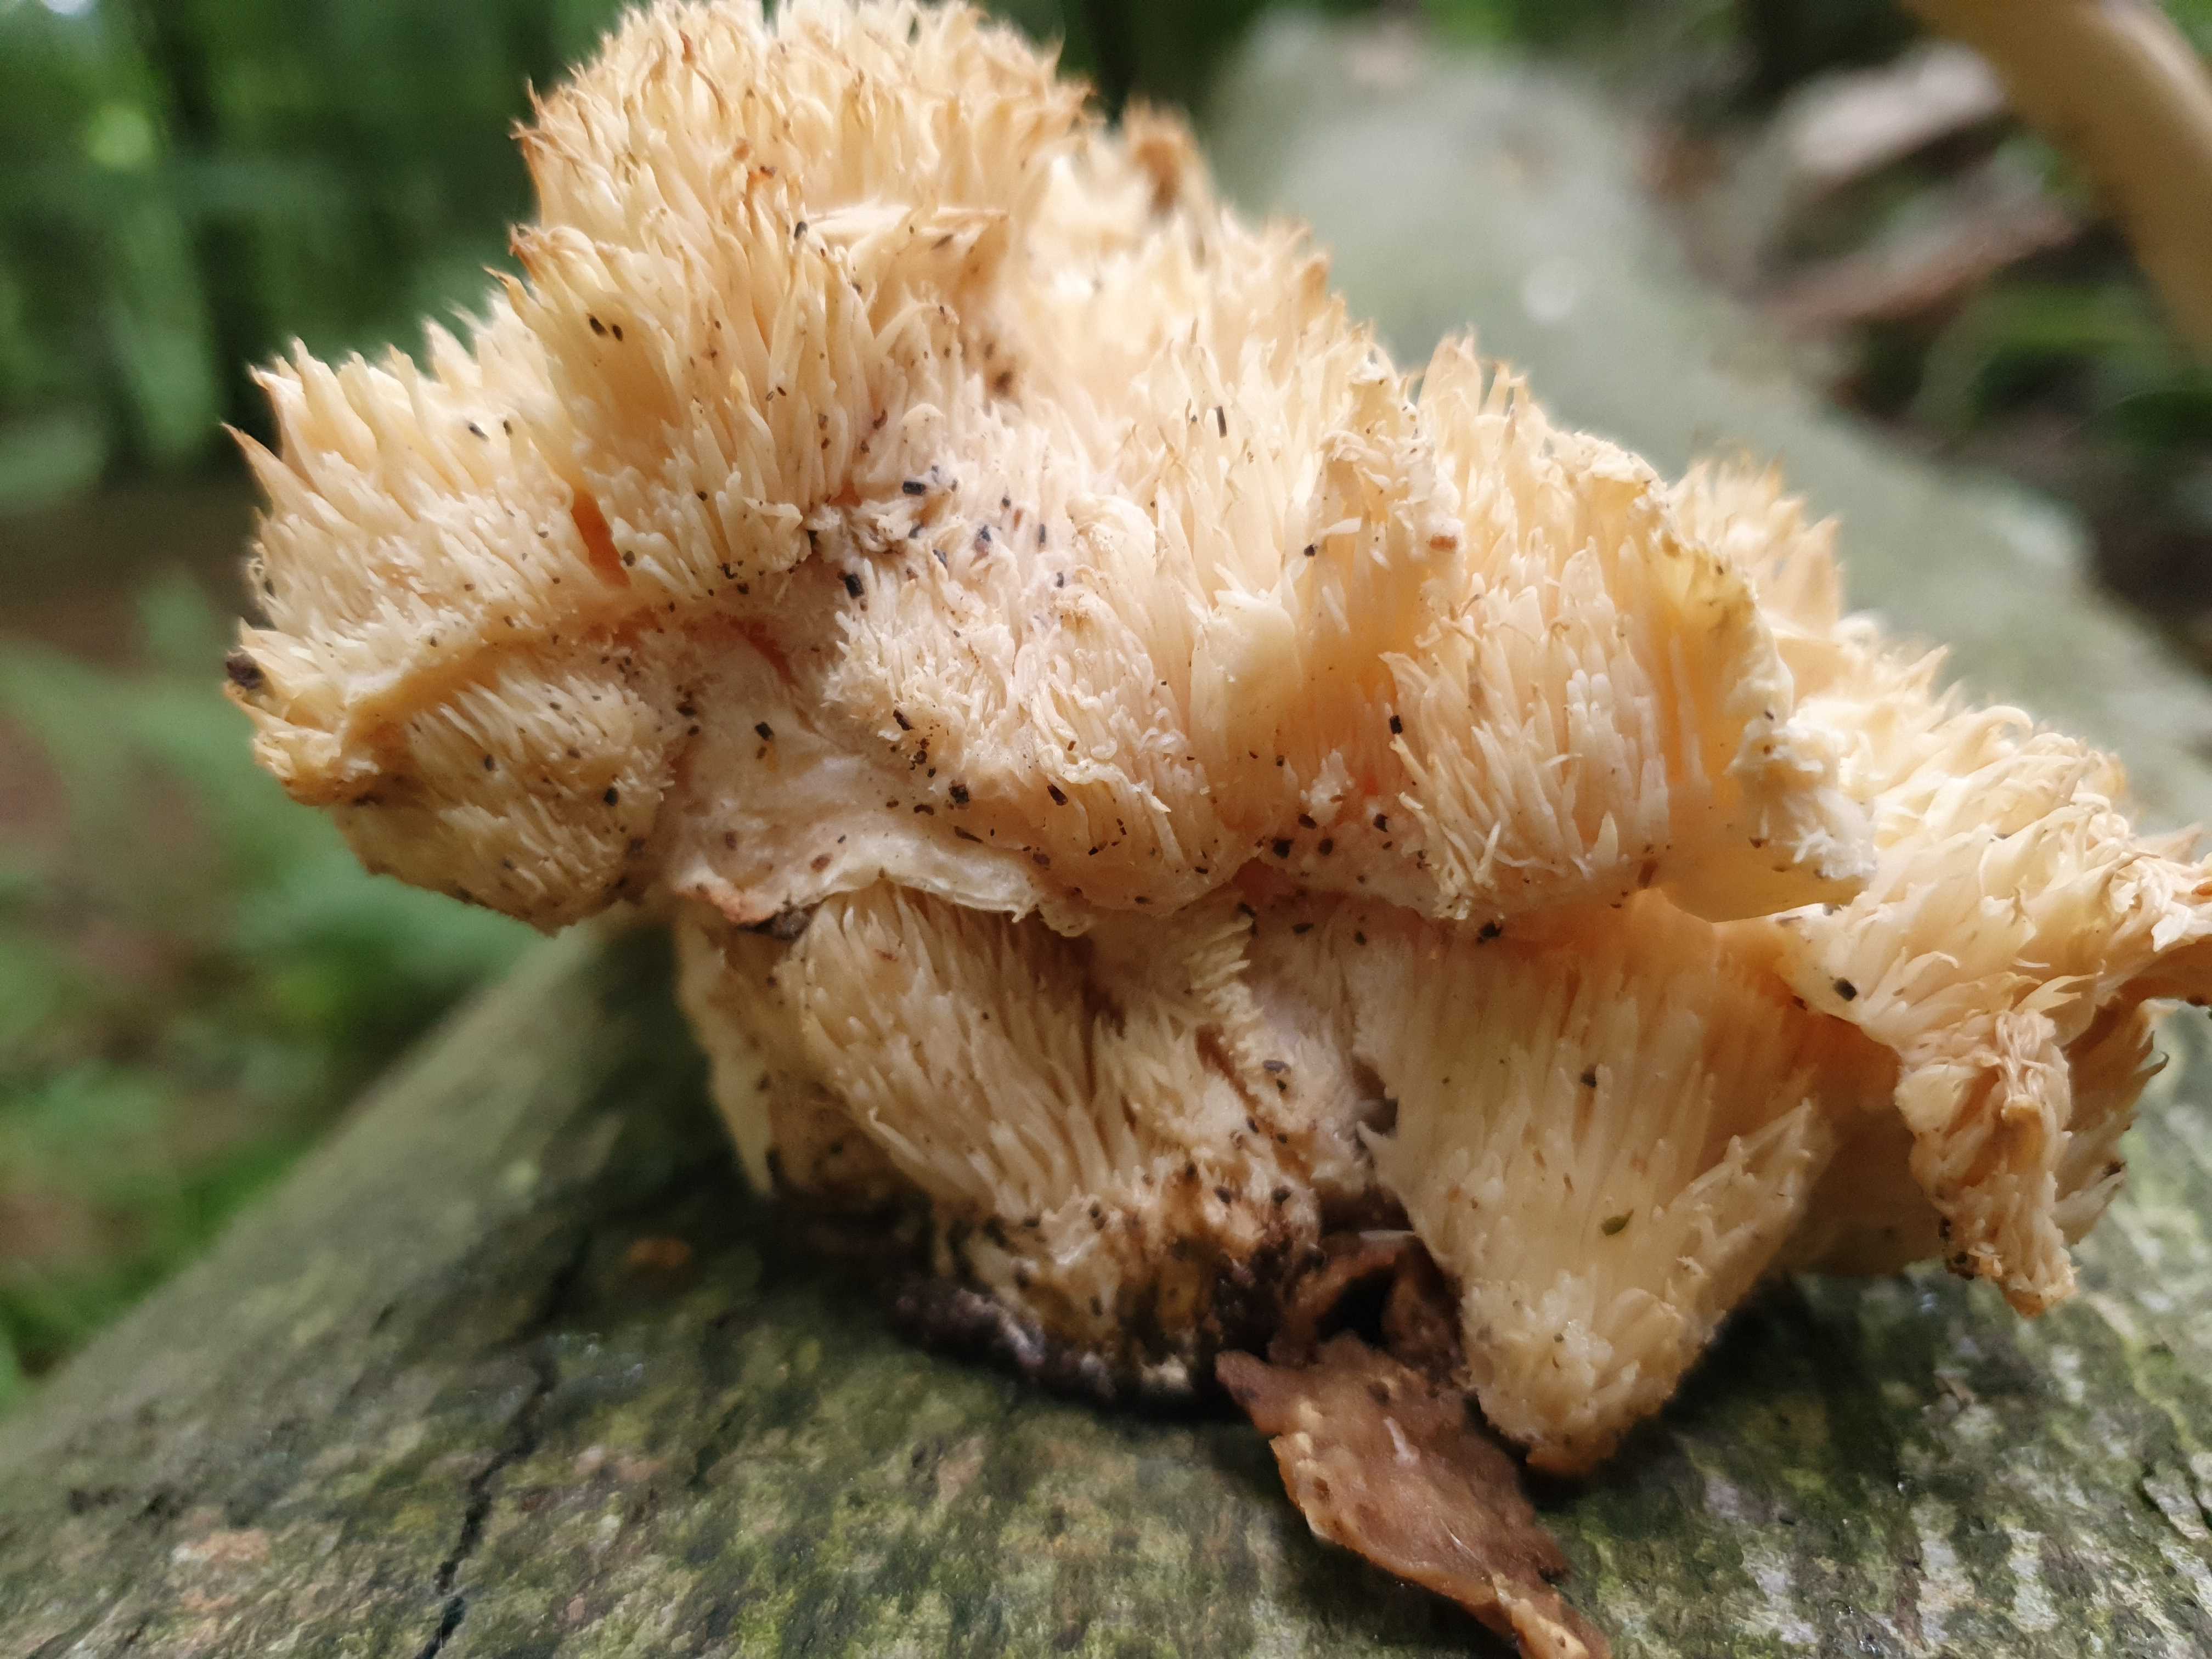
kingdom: Fungi
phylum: Basidiomycota
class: Agaricomycetes
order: Russulales
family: Hericiaceae
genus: Hericium
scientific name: Hericium cirrhatum
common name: børstepigsvamp
